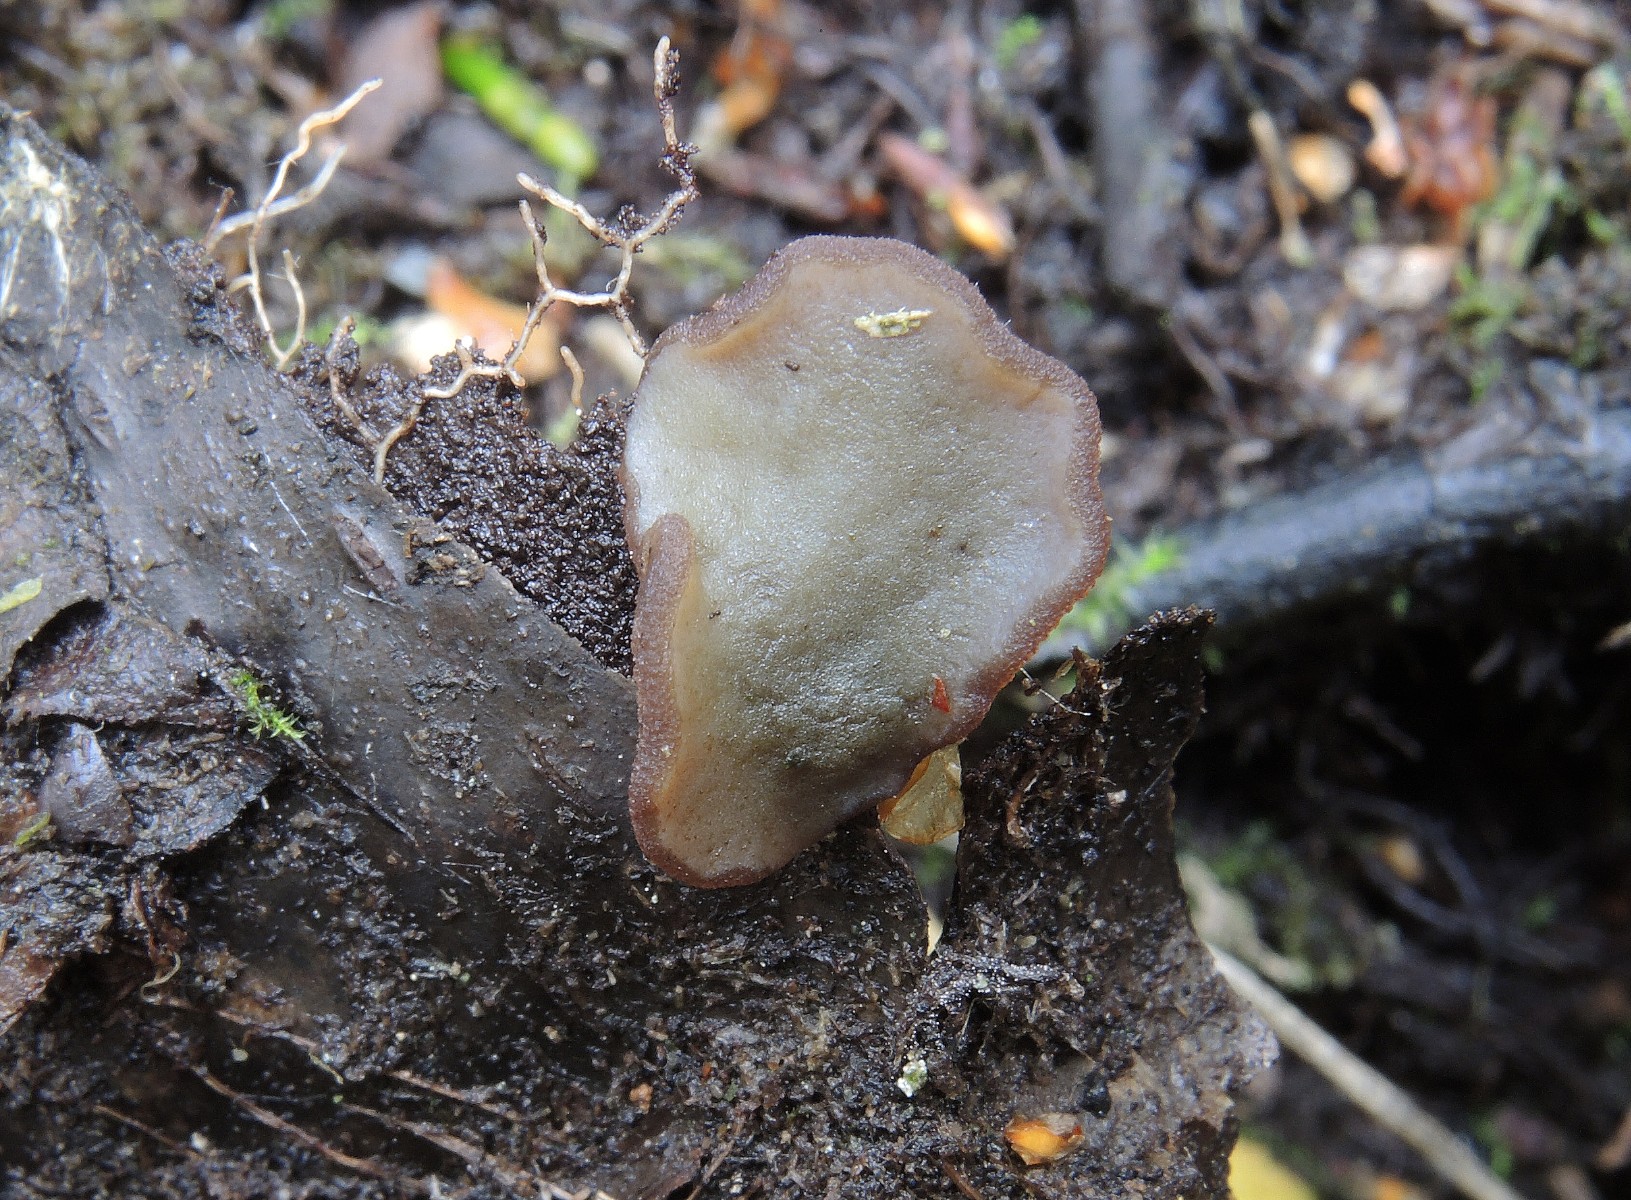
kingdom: Fungi
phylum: Ascomycota
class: Pezizomycetes
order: Pezizales
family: Pezizaceae
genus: Legaliana
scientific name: Legaliana limnaea
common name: mose-bægersvamp
